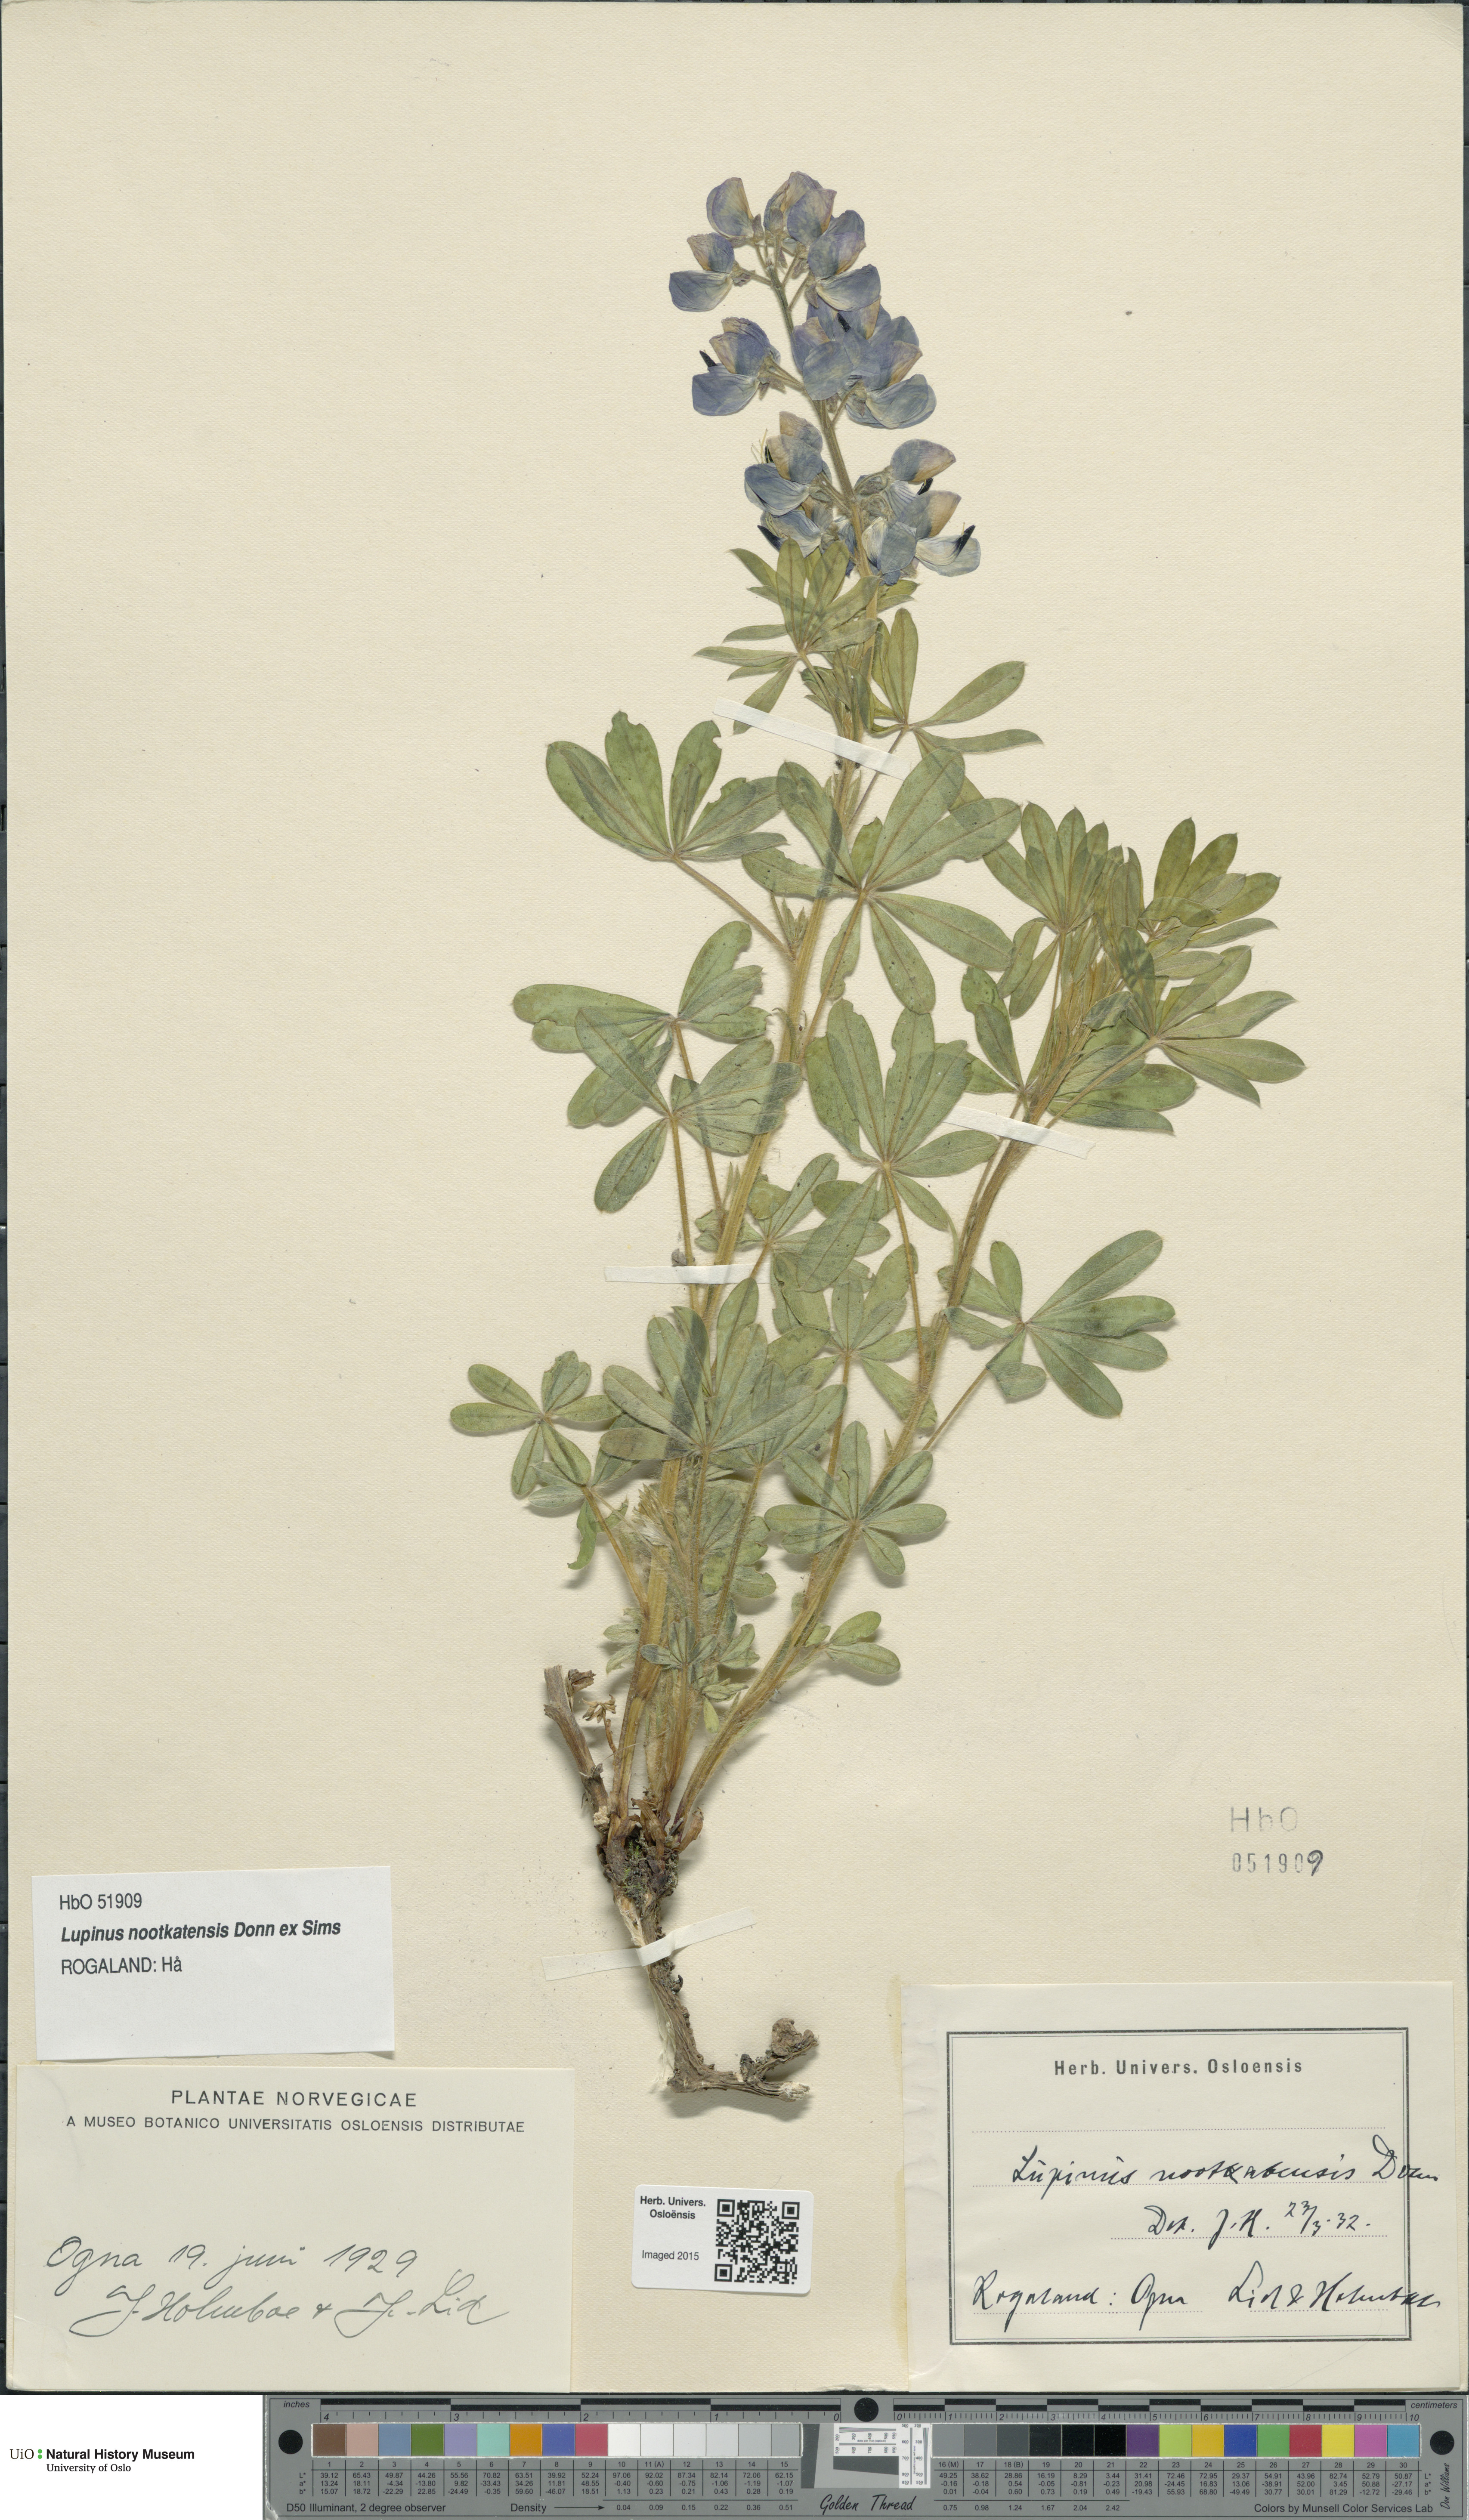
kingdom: Plantae
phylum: Tracheophyta
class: Magnoliopsida
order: Fabales
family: Fabaceae
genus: Lupinus
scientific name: Lupinus nootkatensis
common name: Nootka lupine
